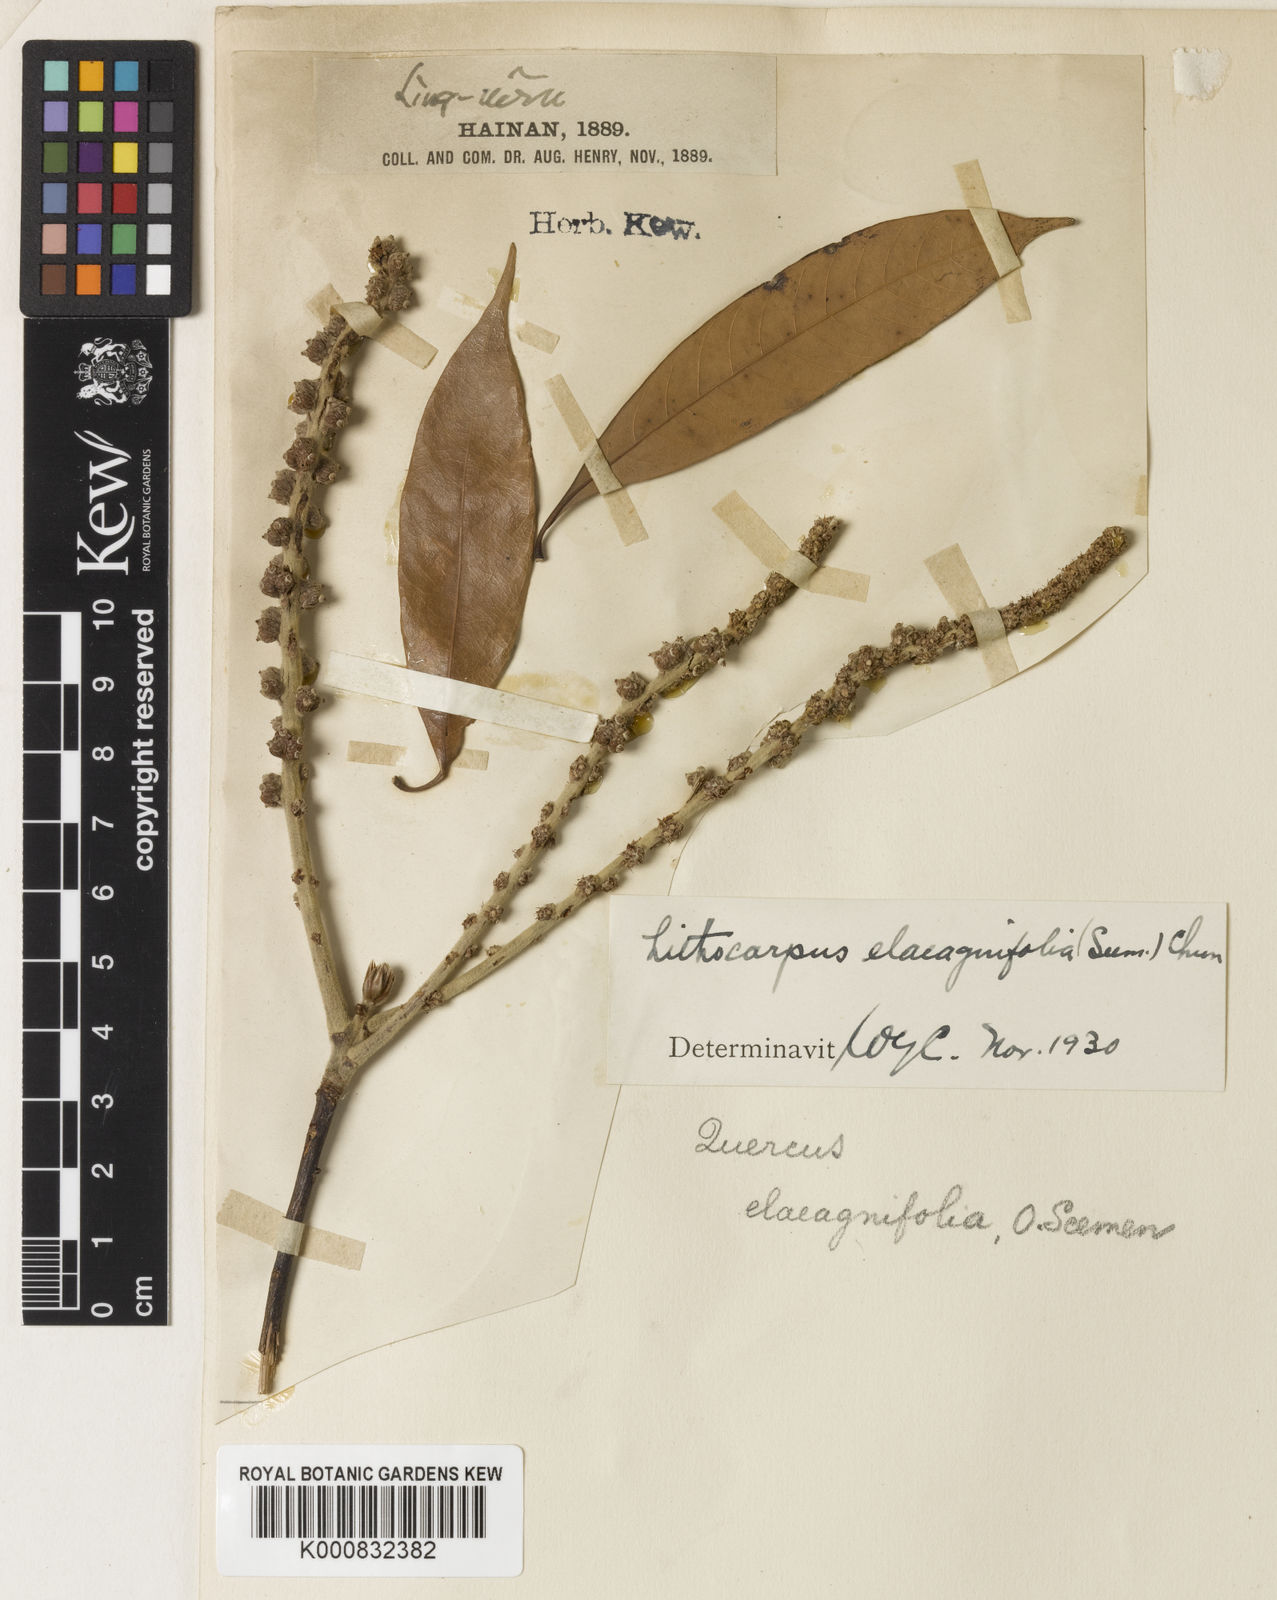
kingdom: Plantae
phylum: Tracheophyta
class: Magnoliopsida
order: Fagales
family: Fagaceae
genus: Lithocarpus
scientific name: Lithocarpus elaeagnifolius
